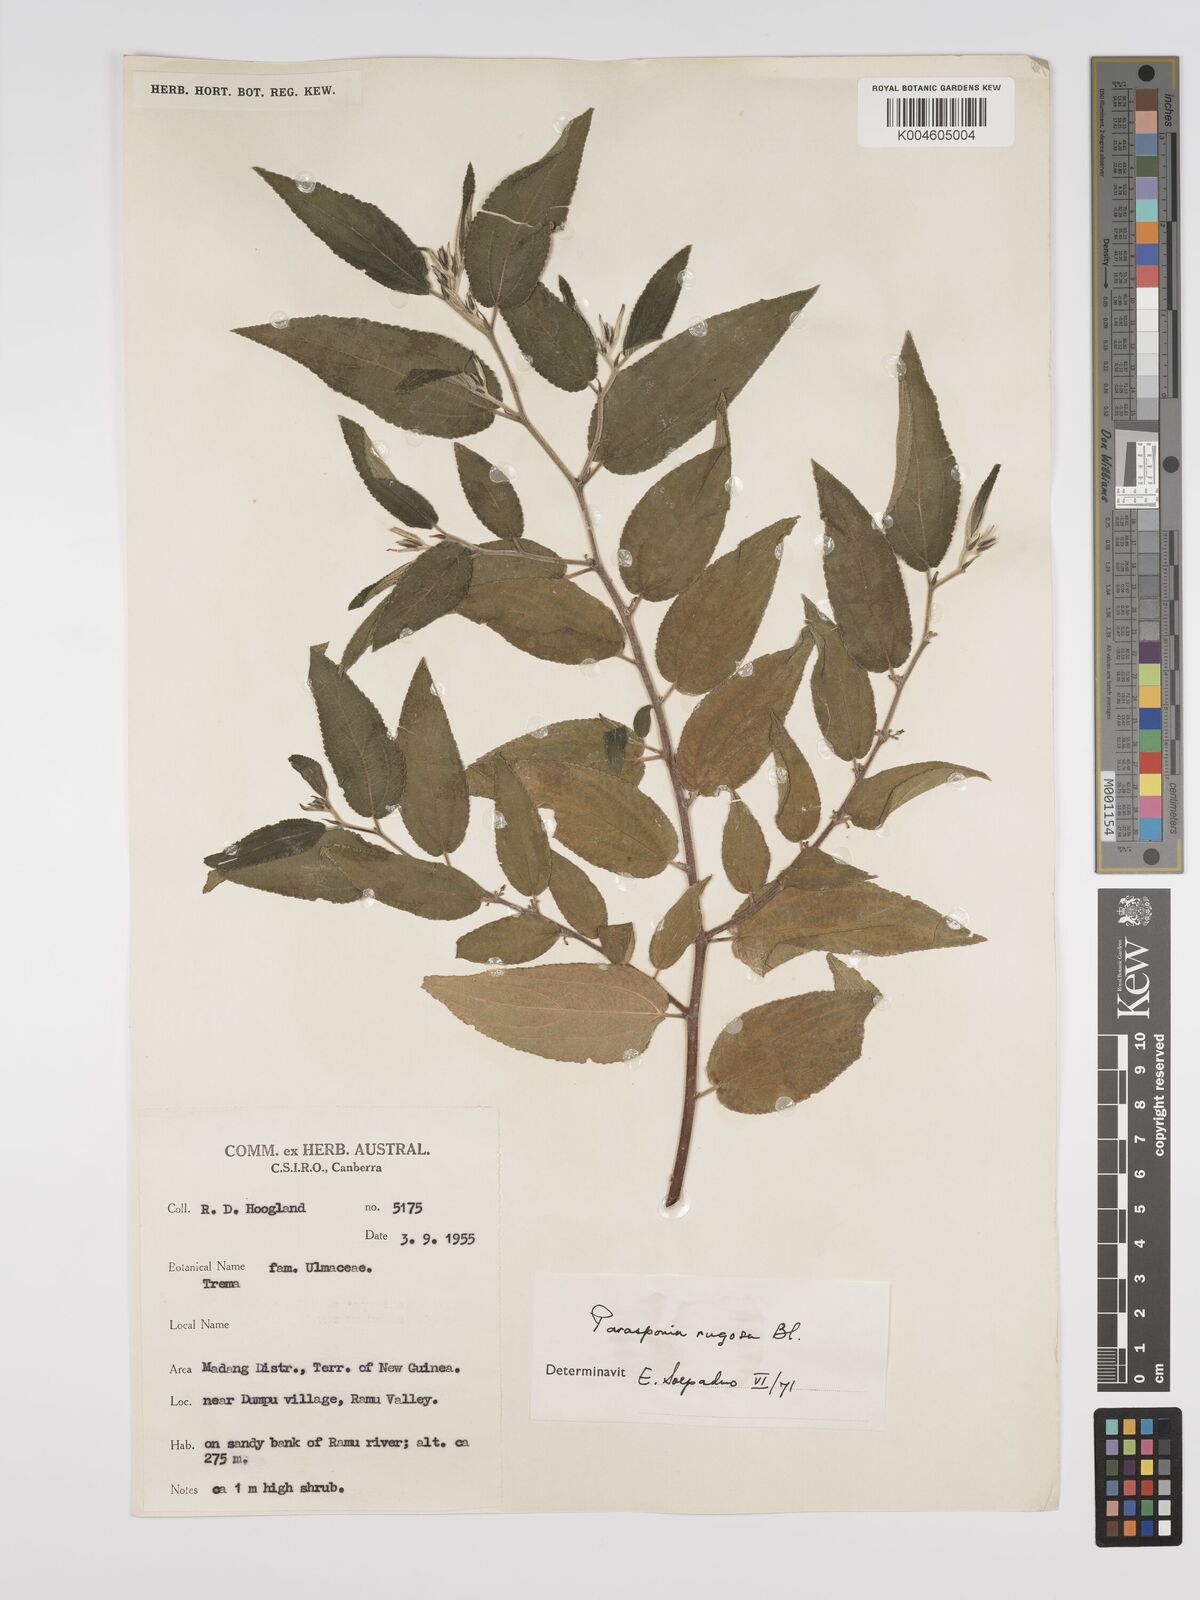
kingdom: Plantae
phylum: Tracheophyta
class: Magnoliopsida
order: Rosales
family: Cannabaceae
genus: Trema
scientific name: Trema eurhynchum
